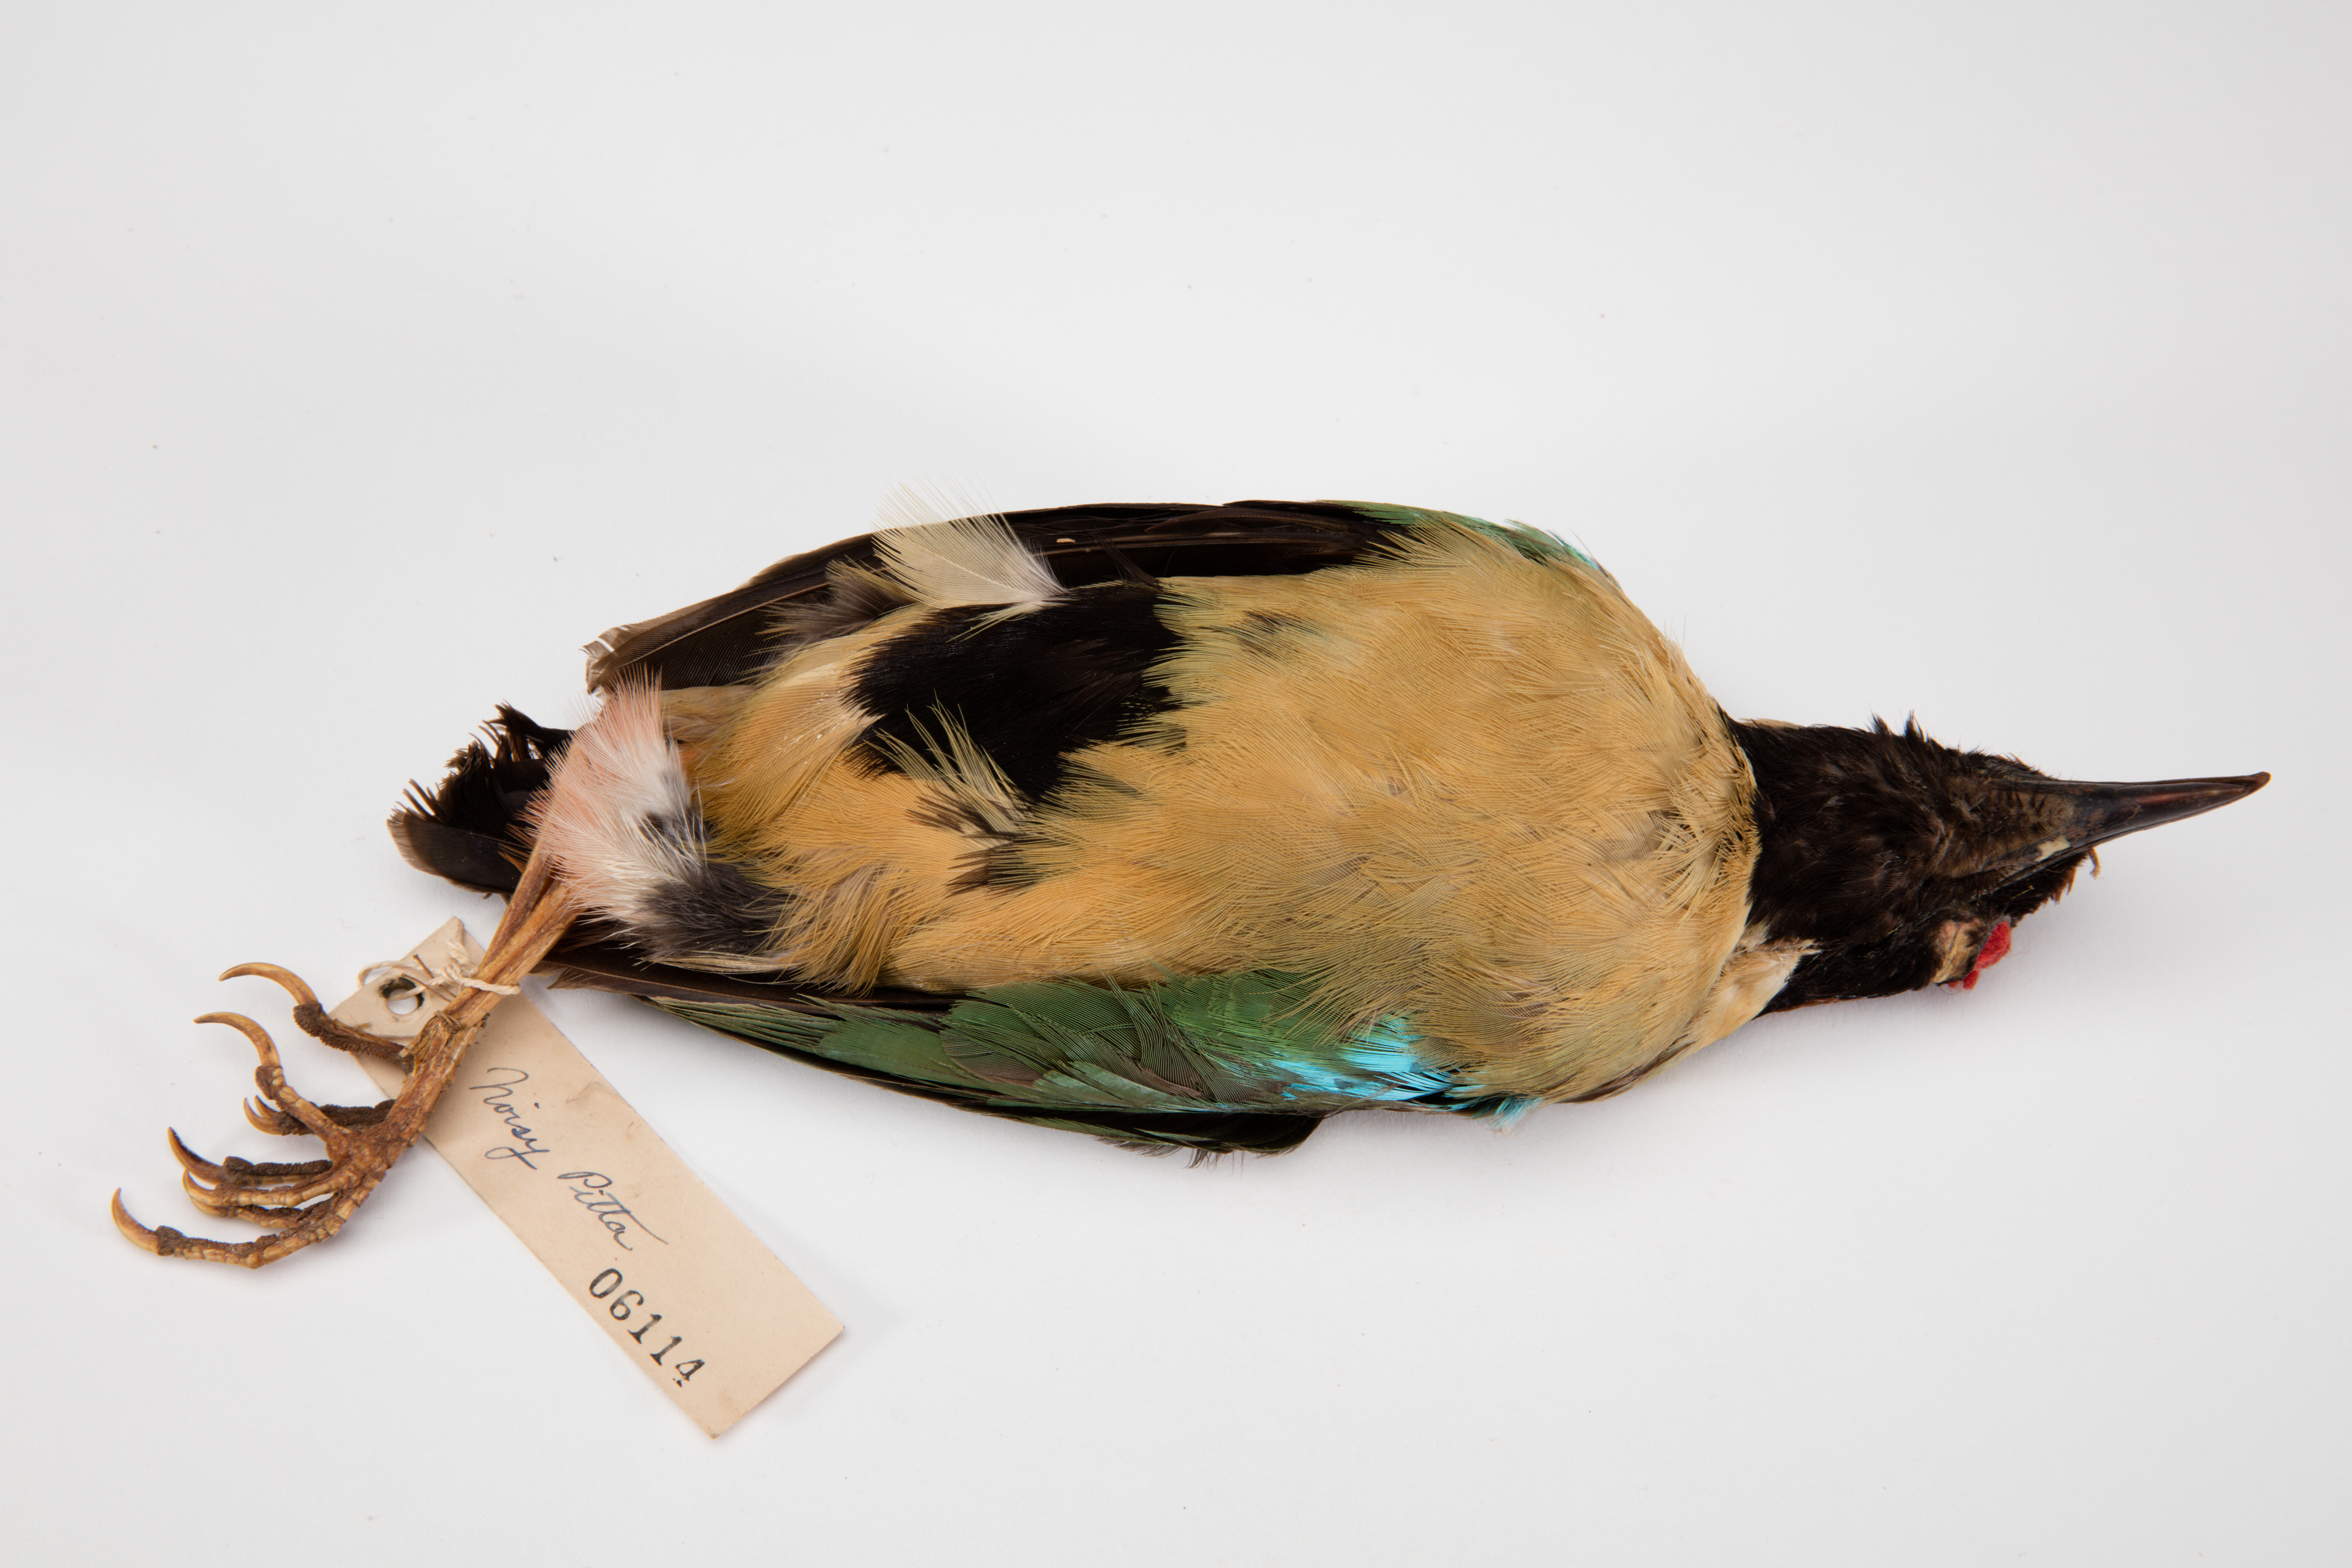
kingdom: Animalia
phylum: Chordata
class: Aves
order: Passeriformes
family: Pittidae
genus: Pitta
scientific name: Pitta versicolor
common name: Noisy pitta
